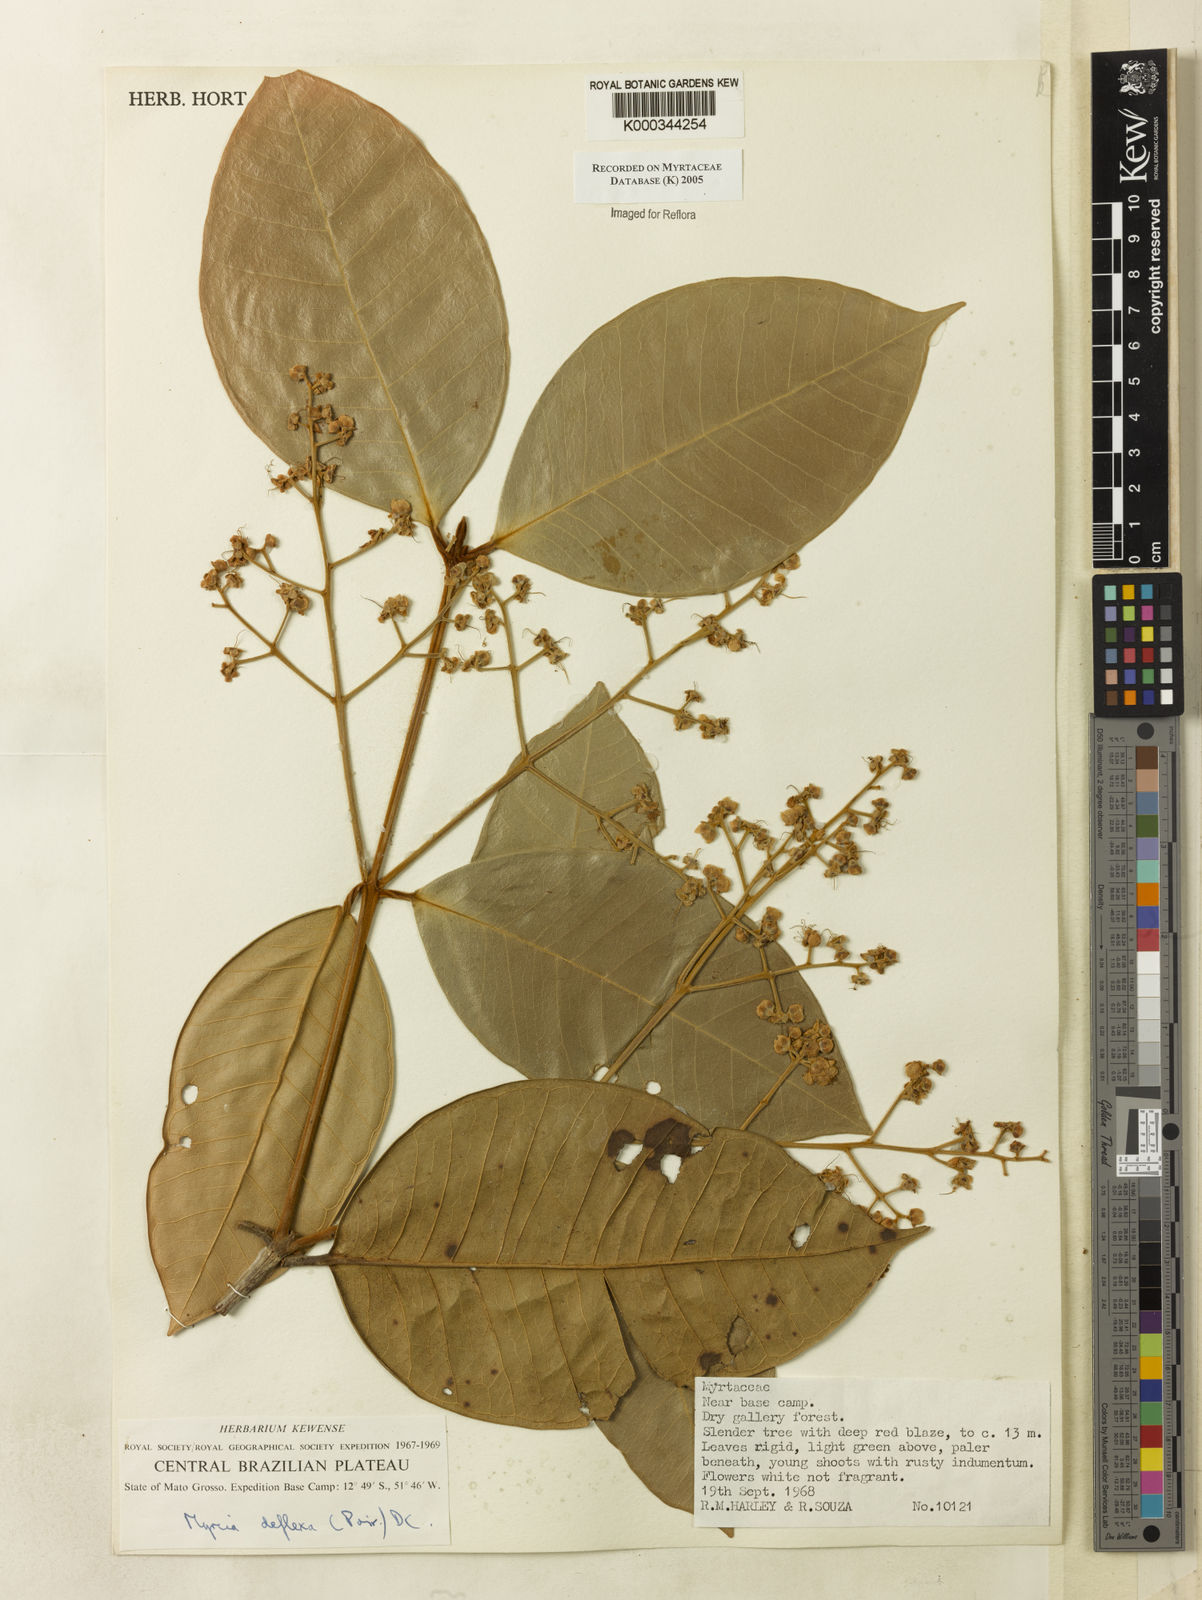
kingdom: Plantae
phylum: Tracheophyta
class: Magnoliopsida
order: Myrtales
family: Myrtaceae
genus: Myrcia
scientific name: Myrcia deflexa
